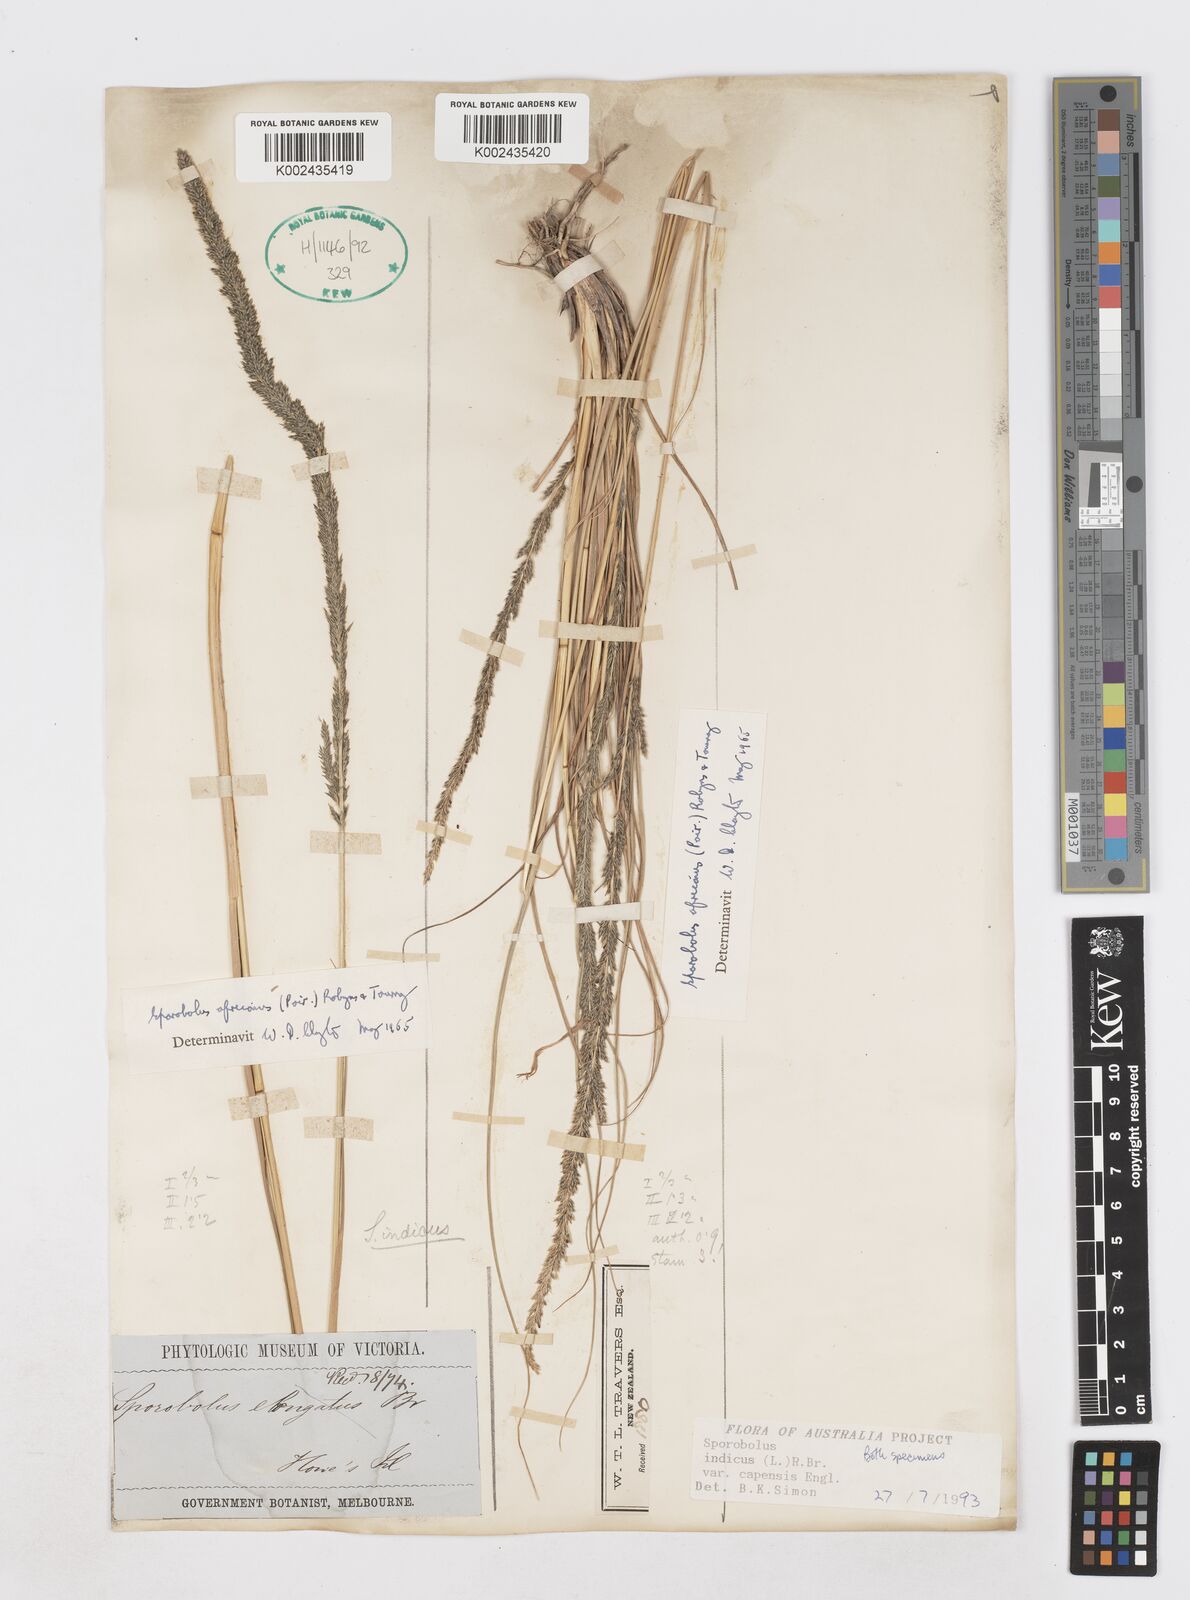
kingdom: Plantae
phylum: Tracheophyta
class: Liliopsida
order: Poales
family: Poaceae
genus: Sporobolus
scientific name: Sporobolus africanus
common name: African dropseed
